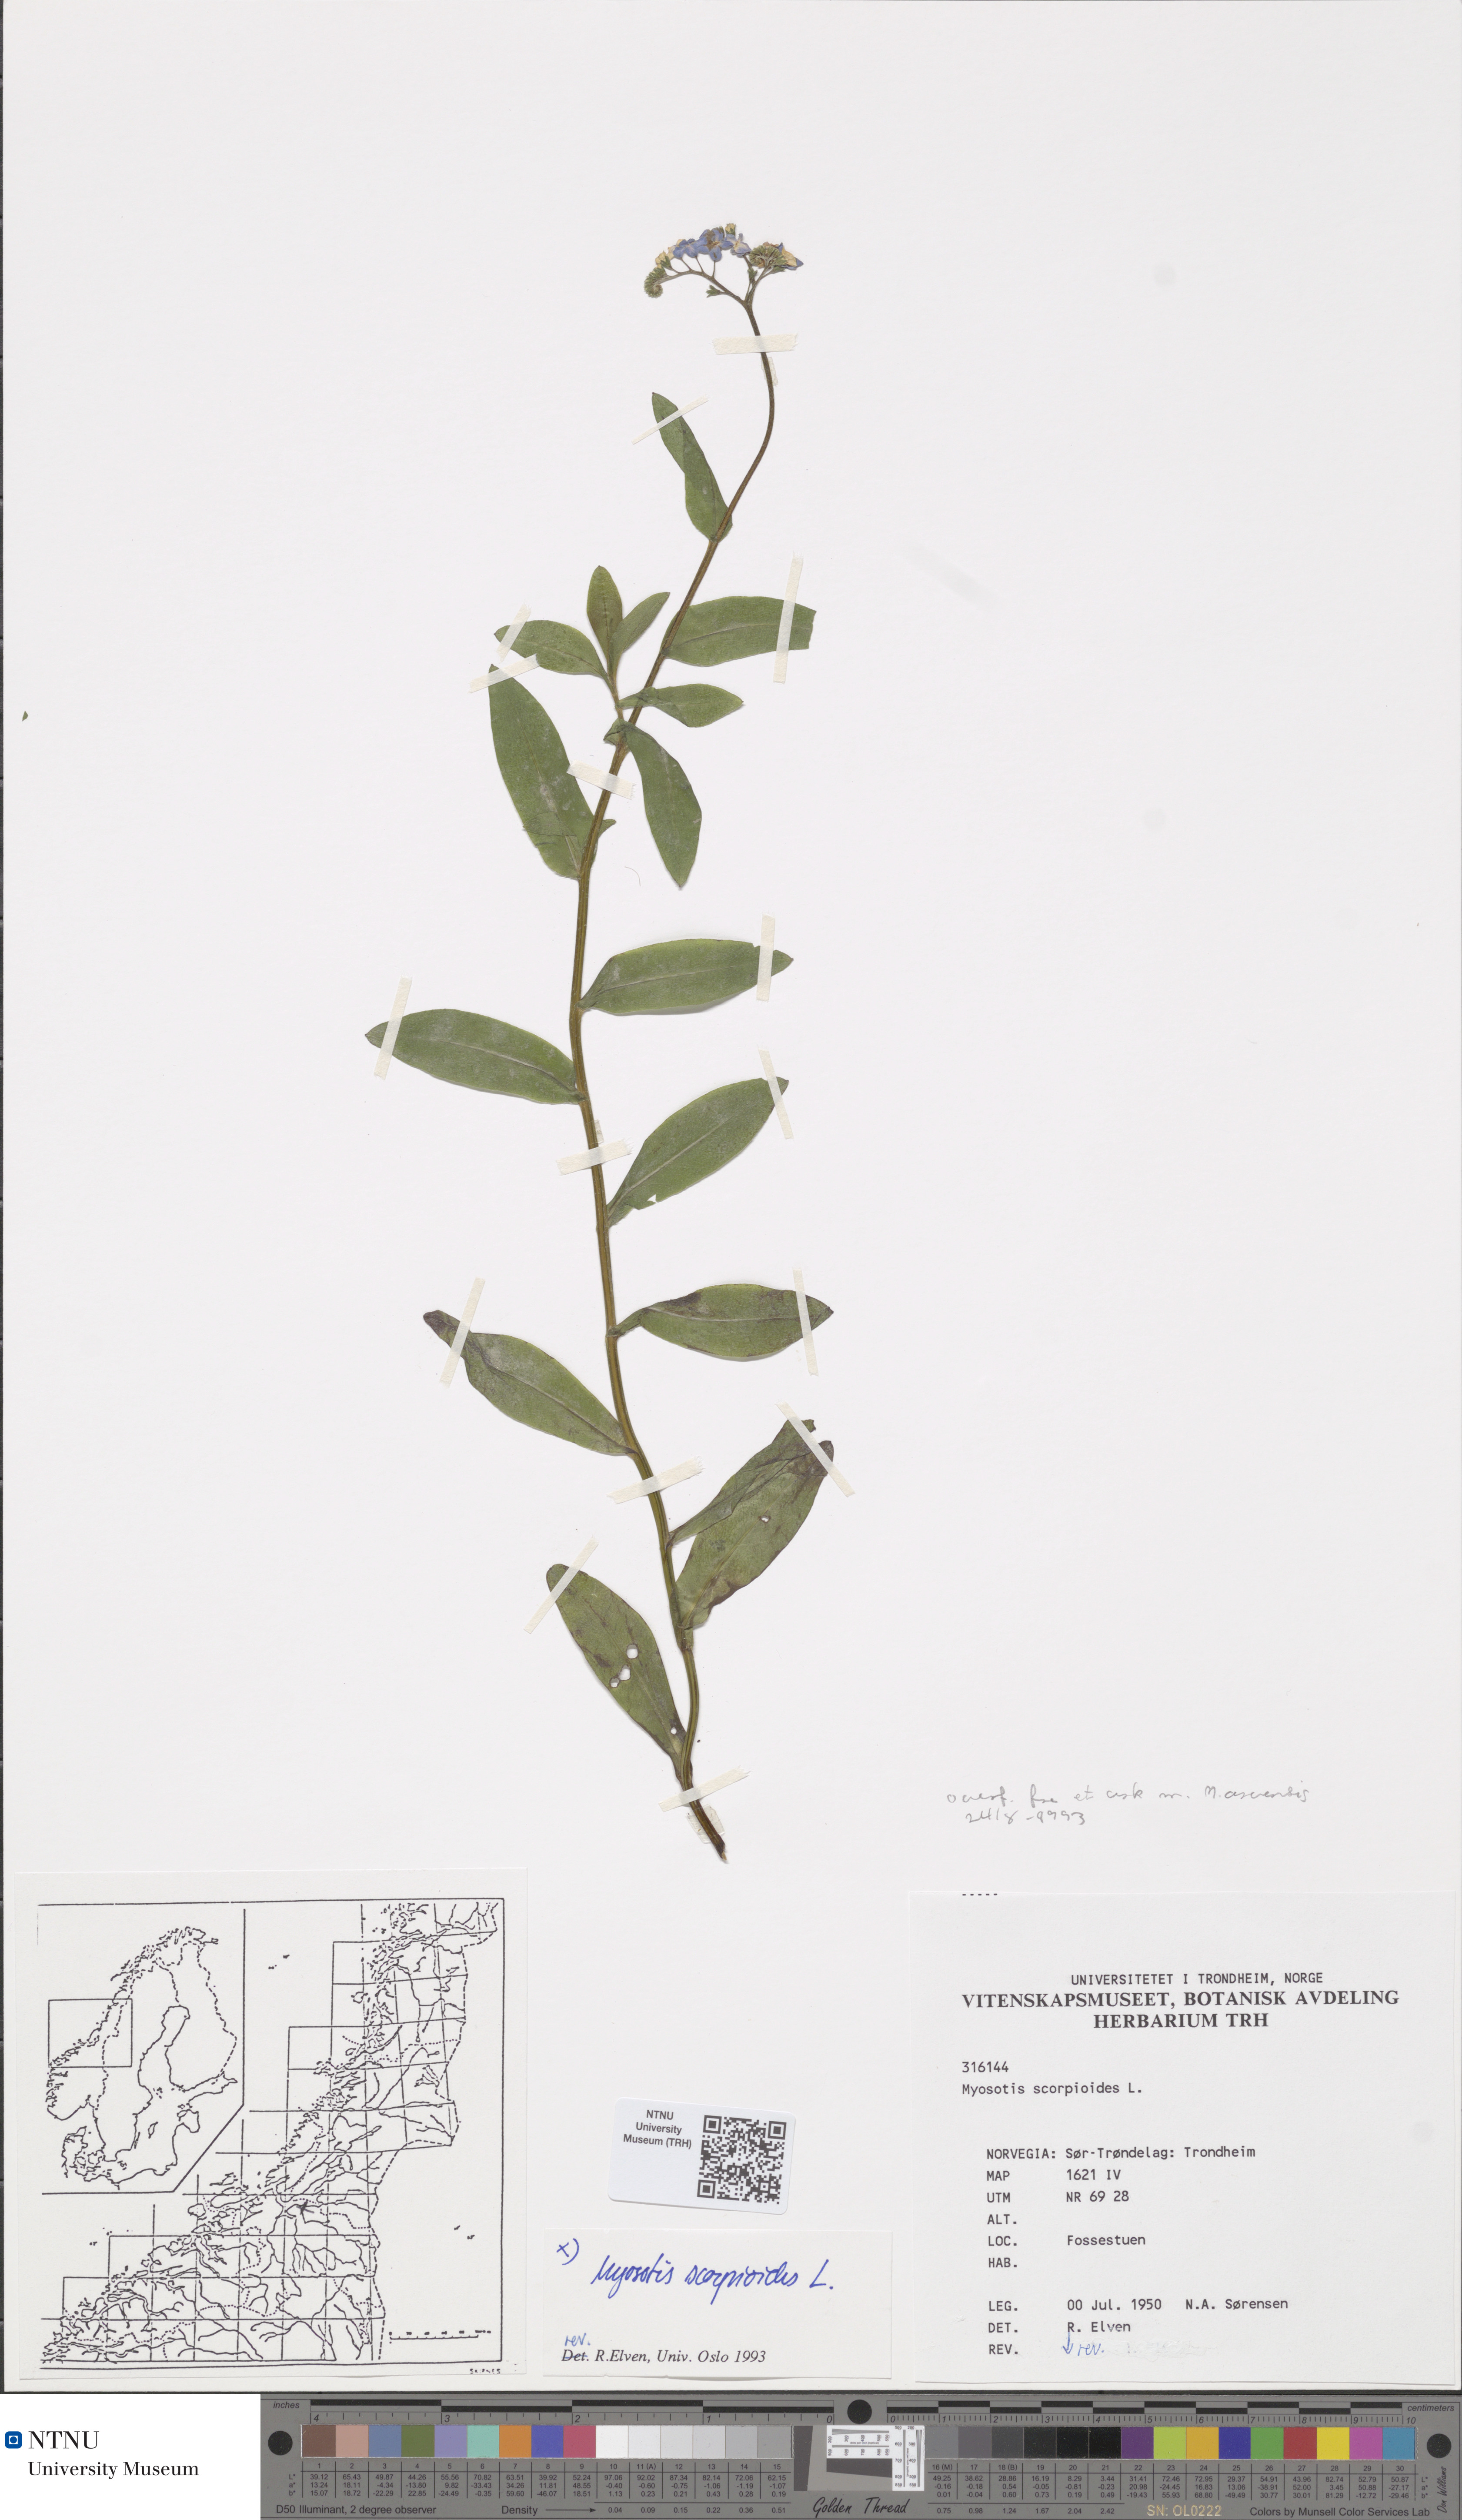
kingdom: Plantae
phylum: Tracheophyta
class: Magnoliopsida
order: Boraginales
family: Boraginaceae
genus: Myosotis
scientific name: Myosotis scorpioides
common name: Water forget-me-not
